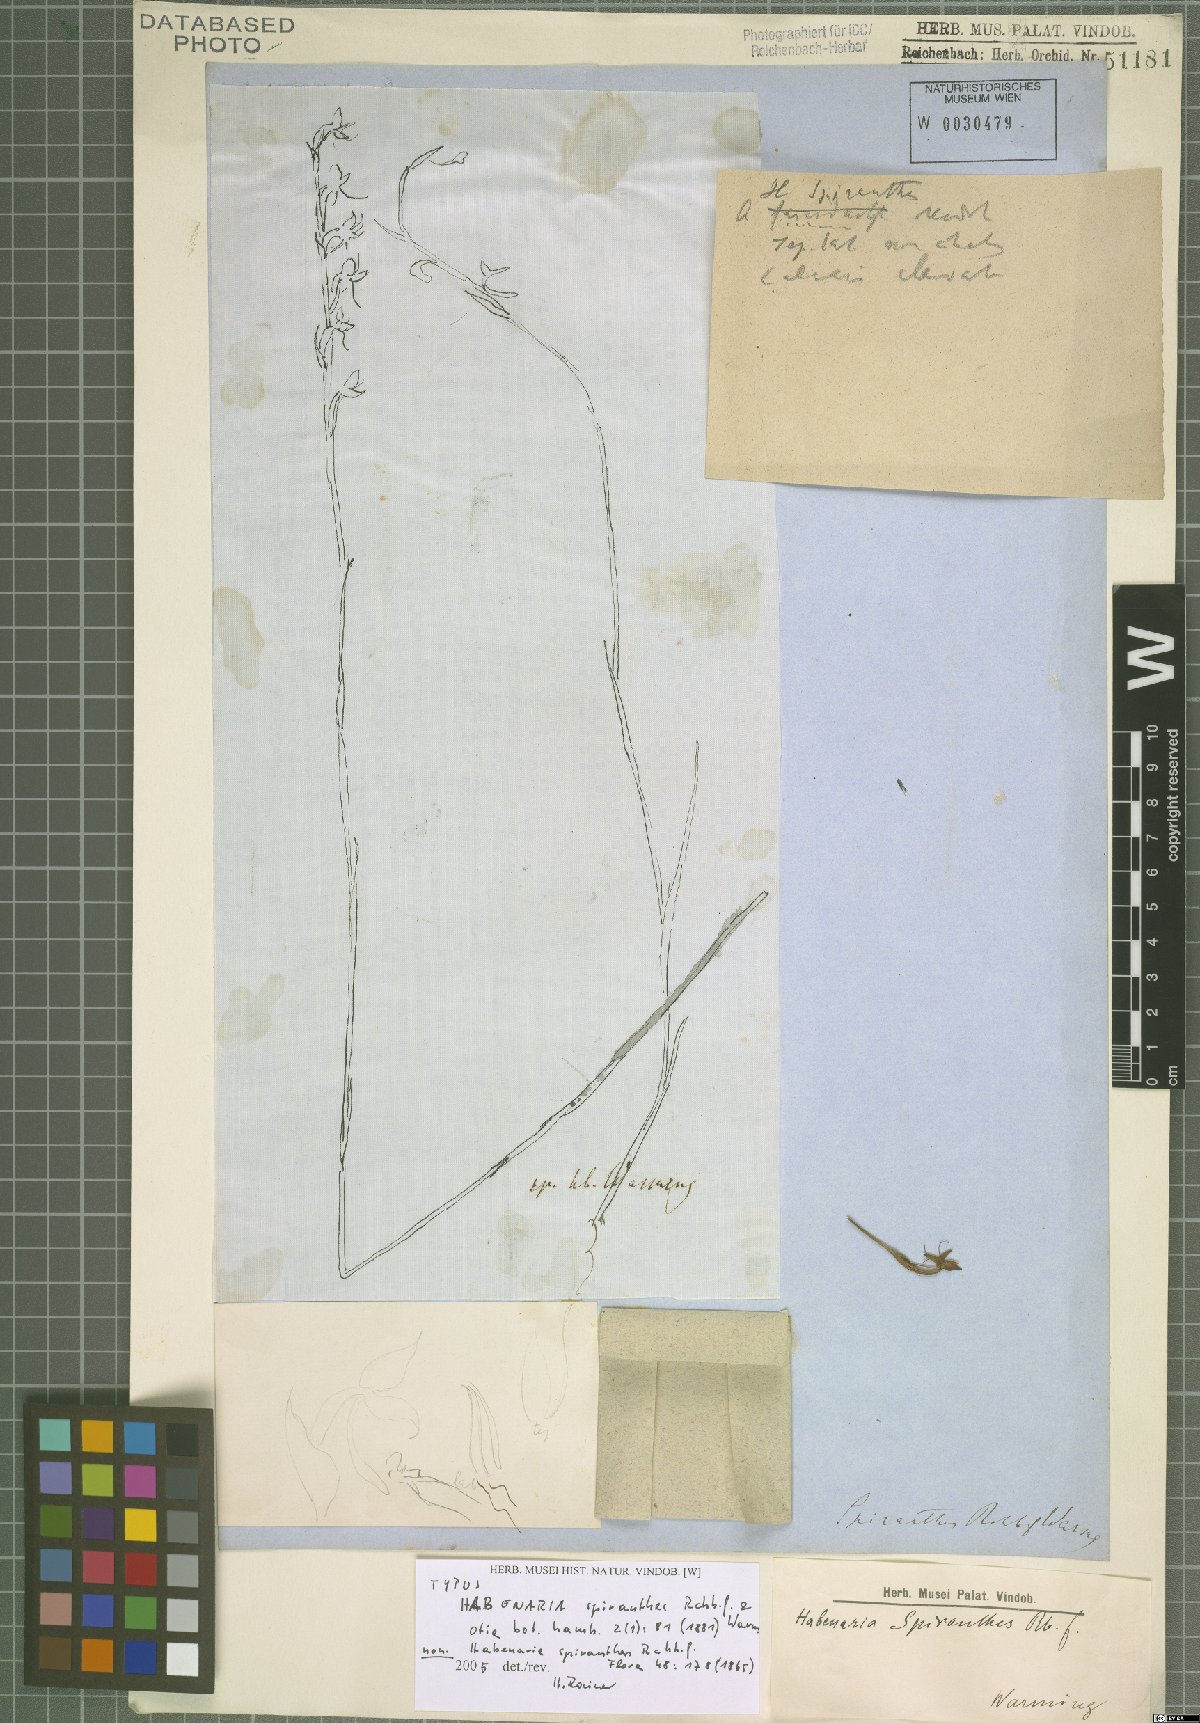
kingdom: Plantae
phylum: Tracheophyta
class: Liliopsida
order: Asparagales
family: Orchidaceae
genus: Habenaria
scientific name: Habenaria
